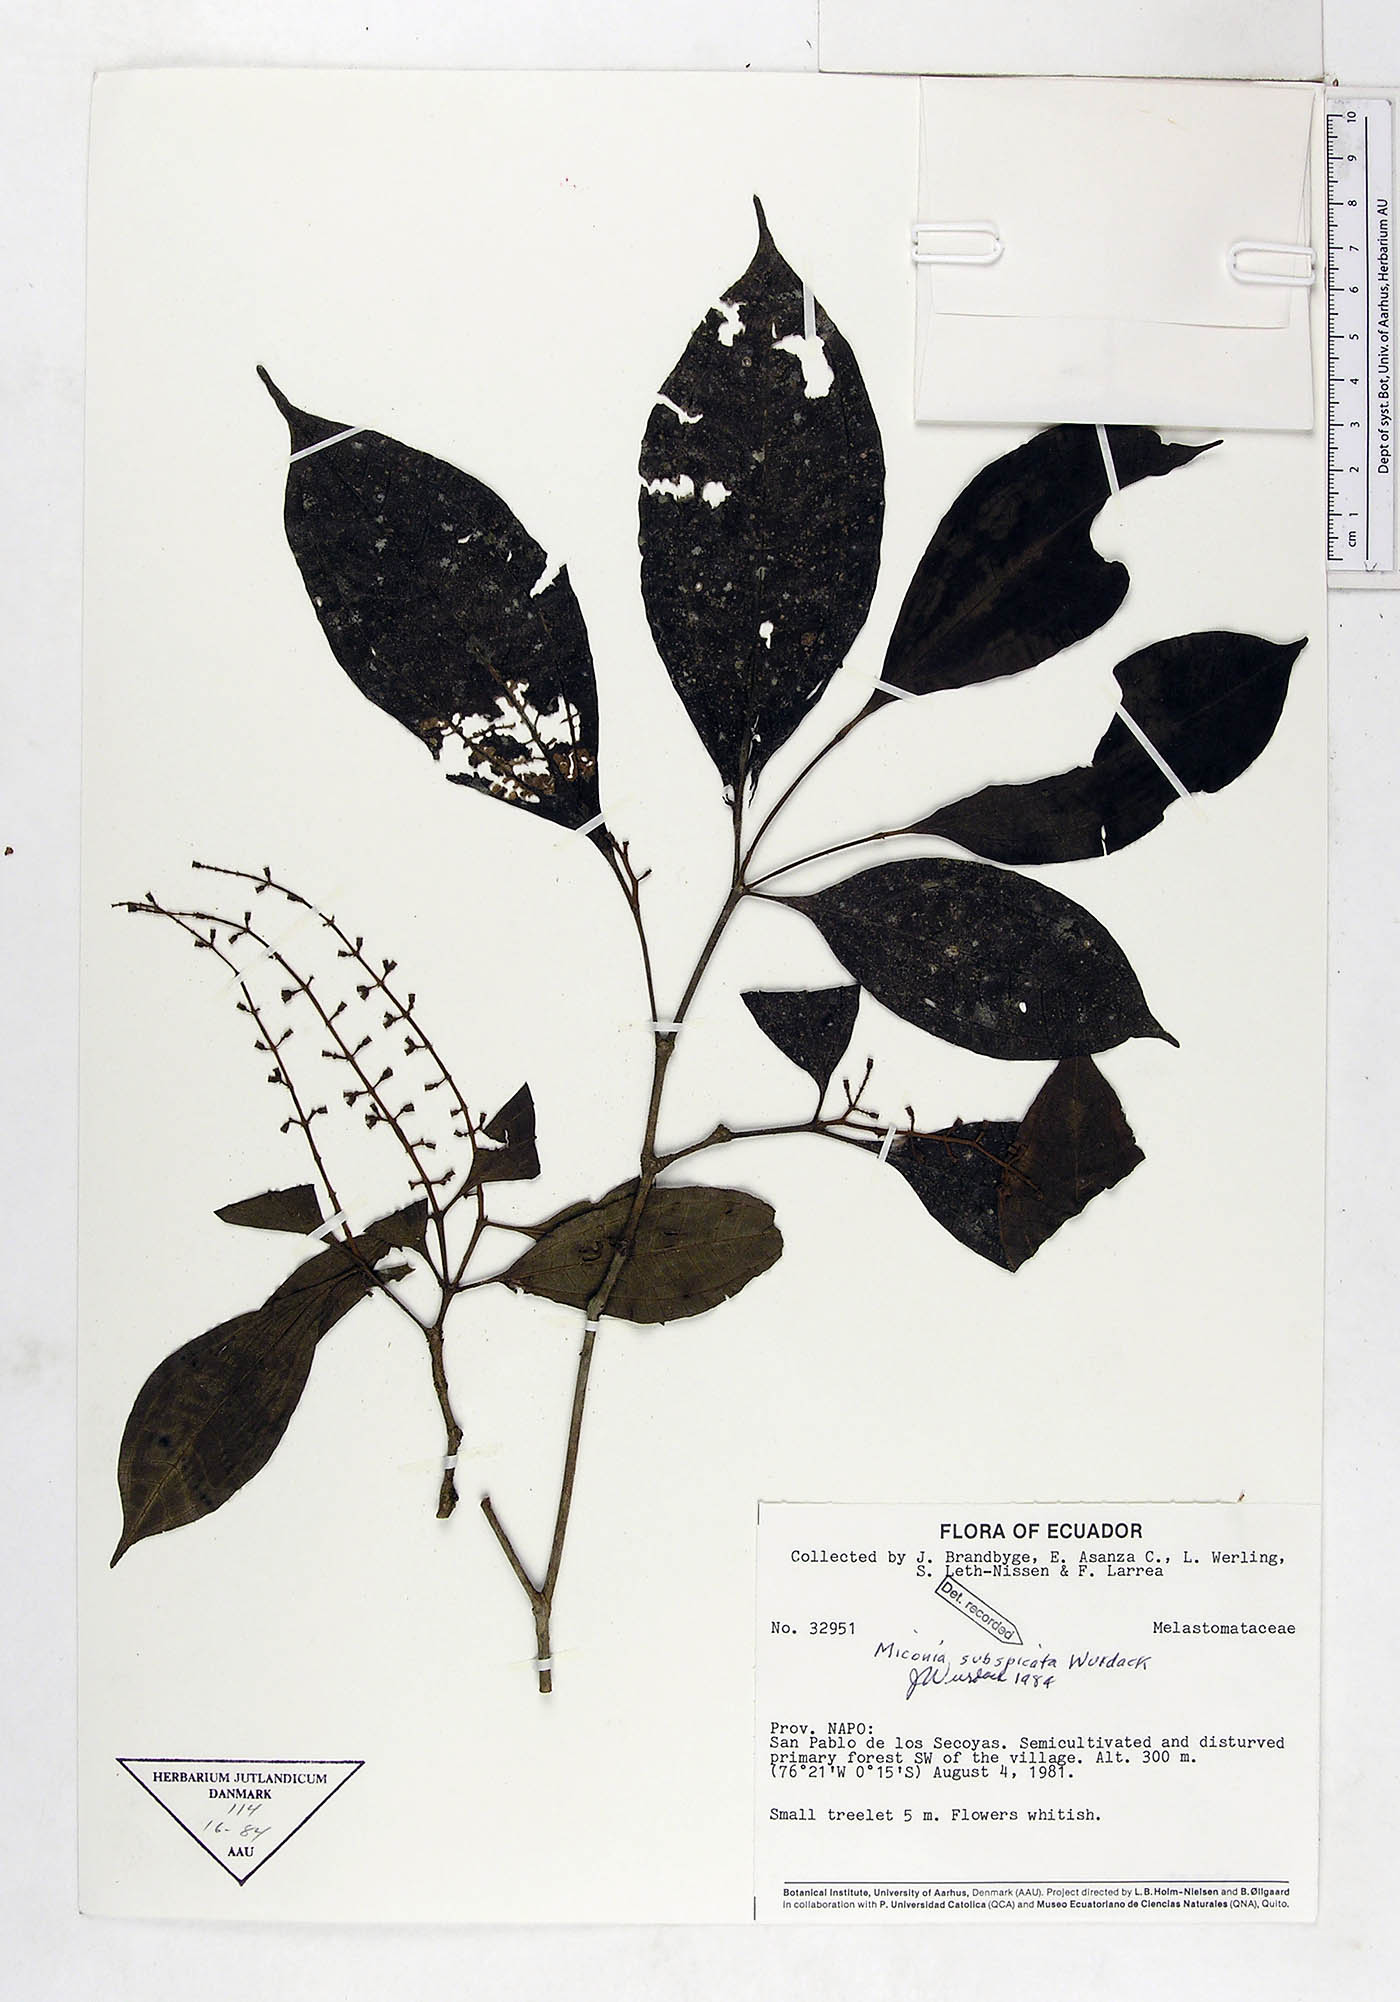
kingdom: Plantae
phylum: Tracheophyta
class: Magnoliopsida
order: Myrtales
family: Melastomataceae
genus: Miconia
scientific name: Miconia subspicata
